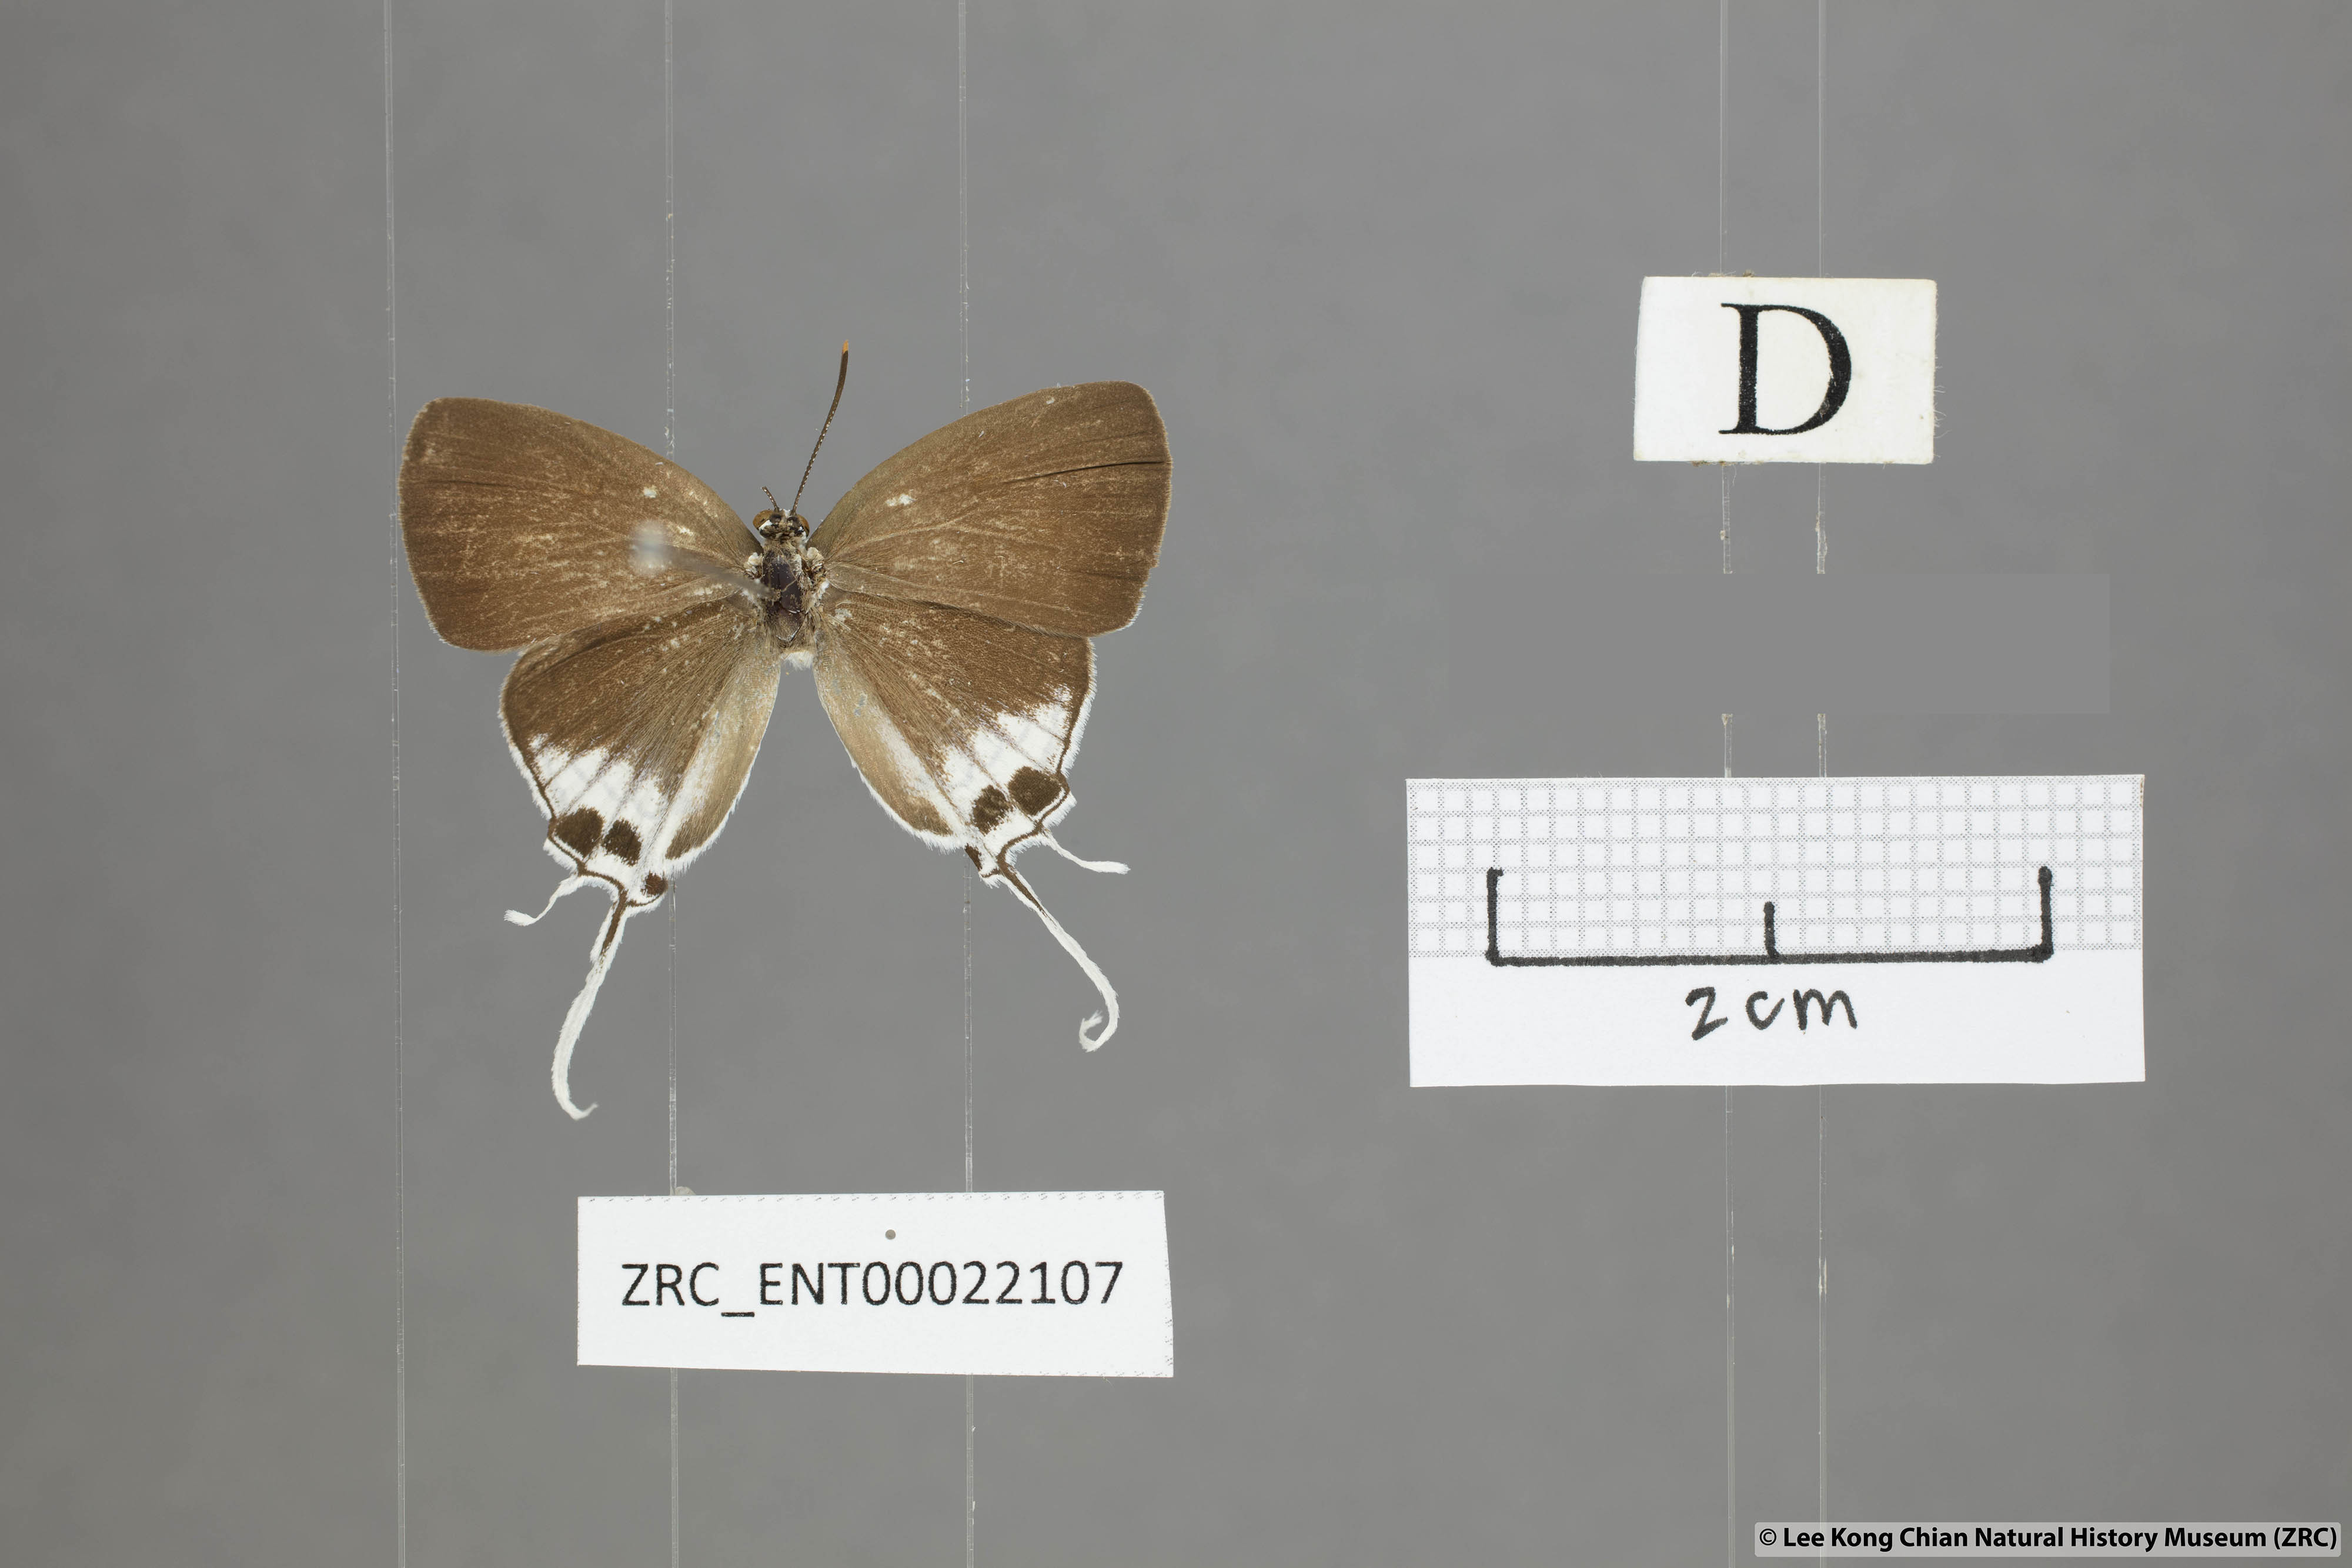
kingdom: Animalia
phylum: Arthropoda
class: Insecta
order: Lepidoptera
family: Lycaenidae
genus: Suasa
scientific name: Suasa lisides
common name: Red imperial
